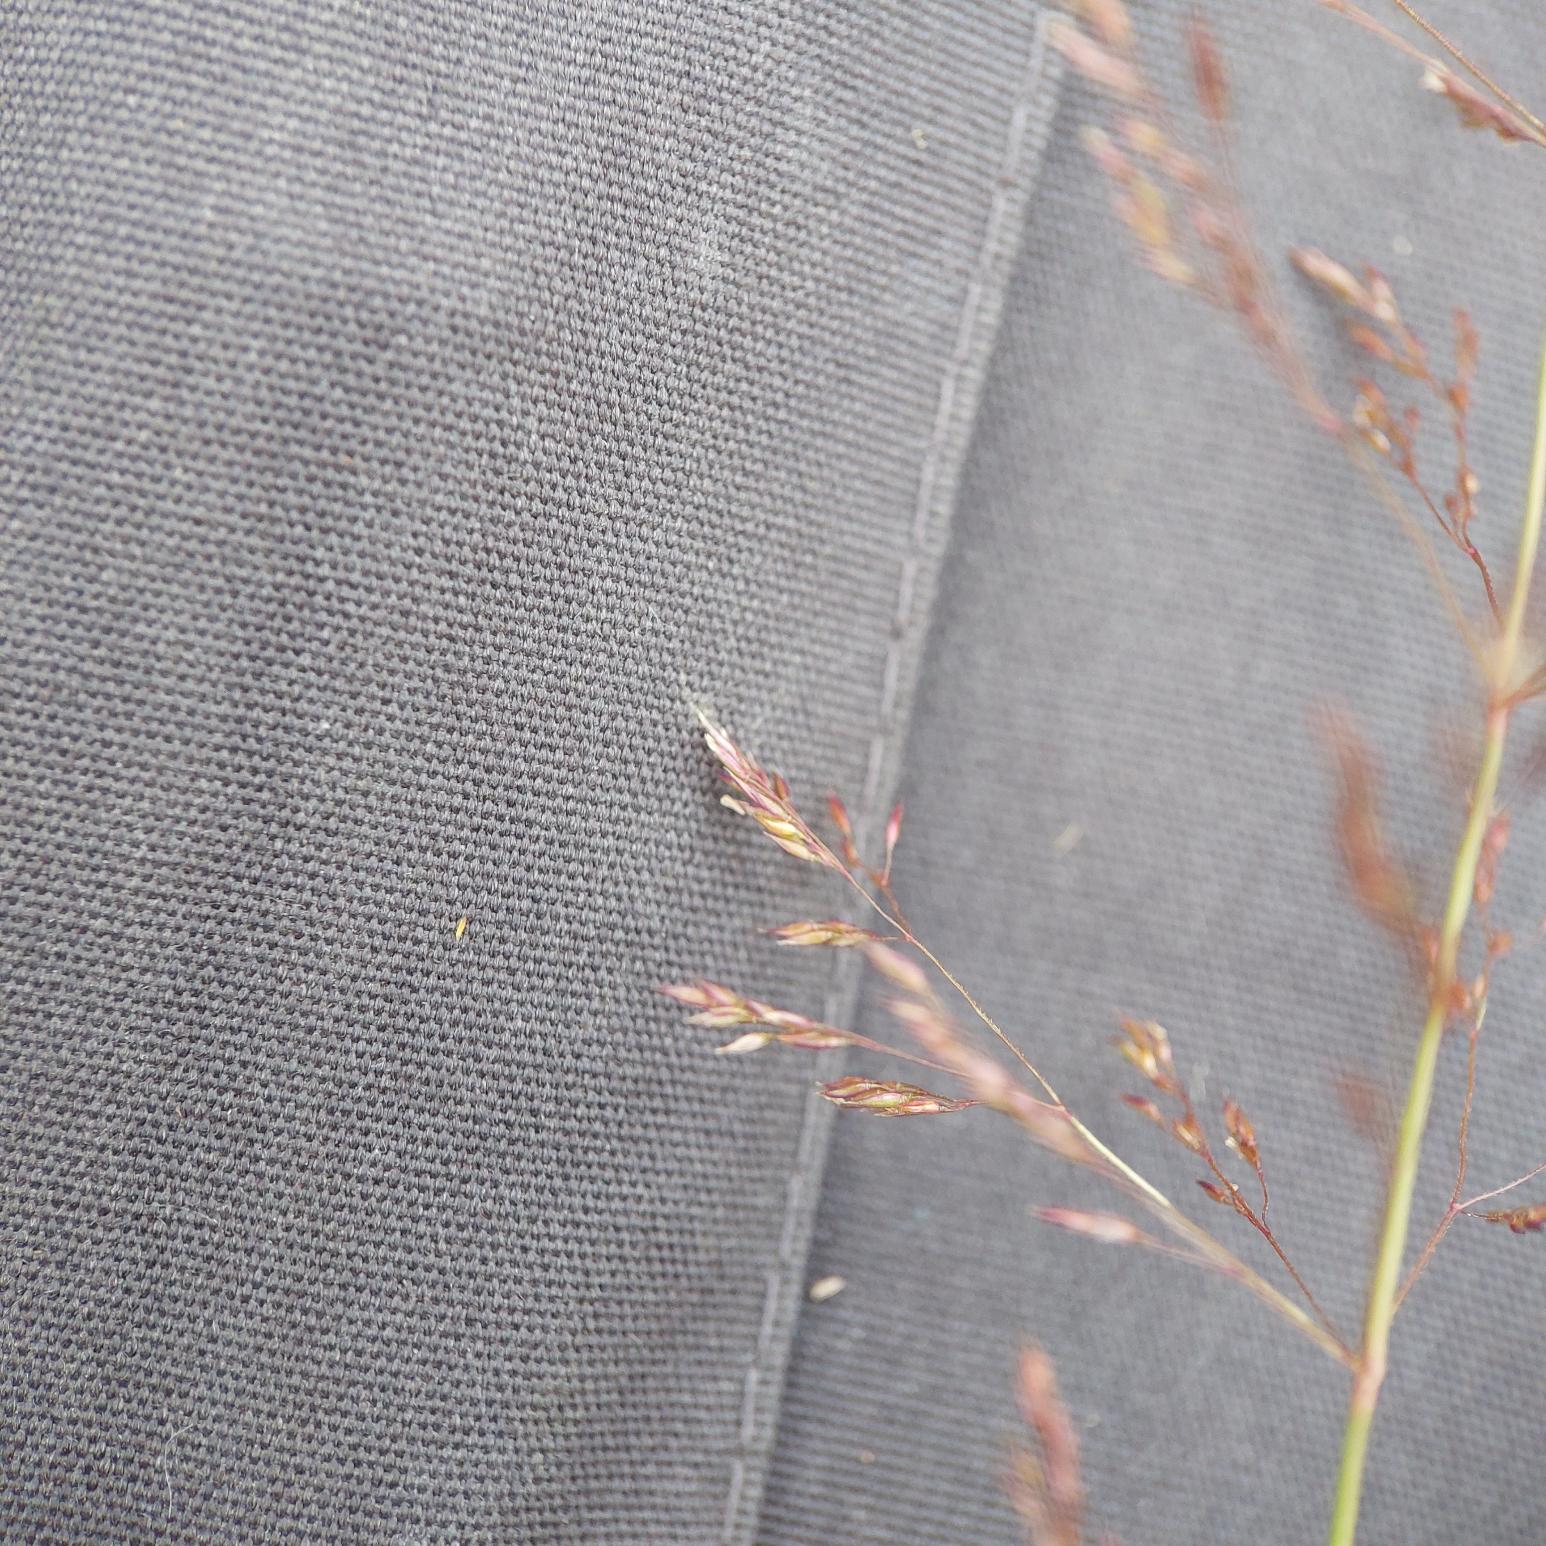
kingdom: Plantae
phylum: Tracheophyta
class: Liliopsida
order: Poales
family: Poaceae
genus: Agrostis
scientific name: Agrostis gigantea
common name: Stortoppet hvene
